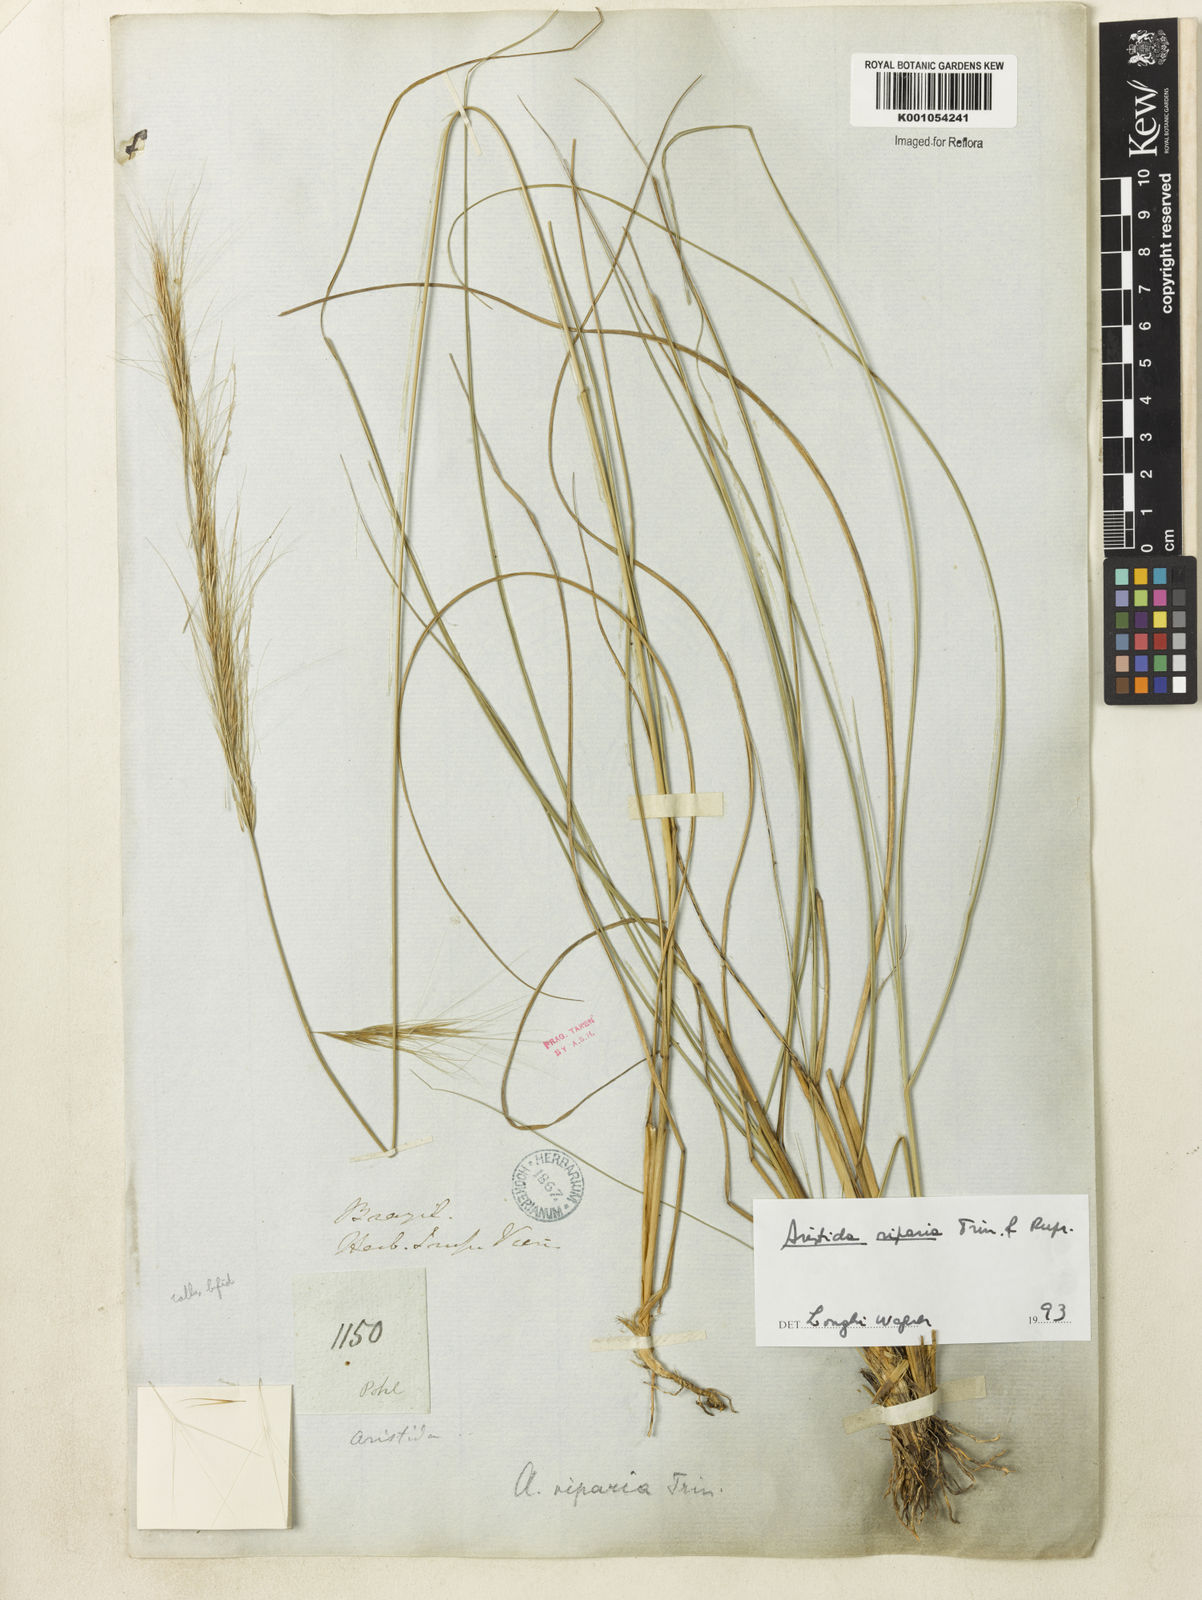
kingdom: Plantae
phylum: Tracheophyta
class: Liliopsida
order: Poales
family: Poaceae
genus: Aristida
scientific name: Aristida riparia
